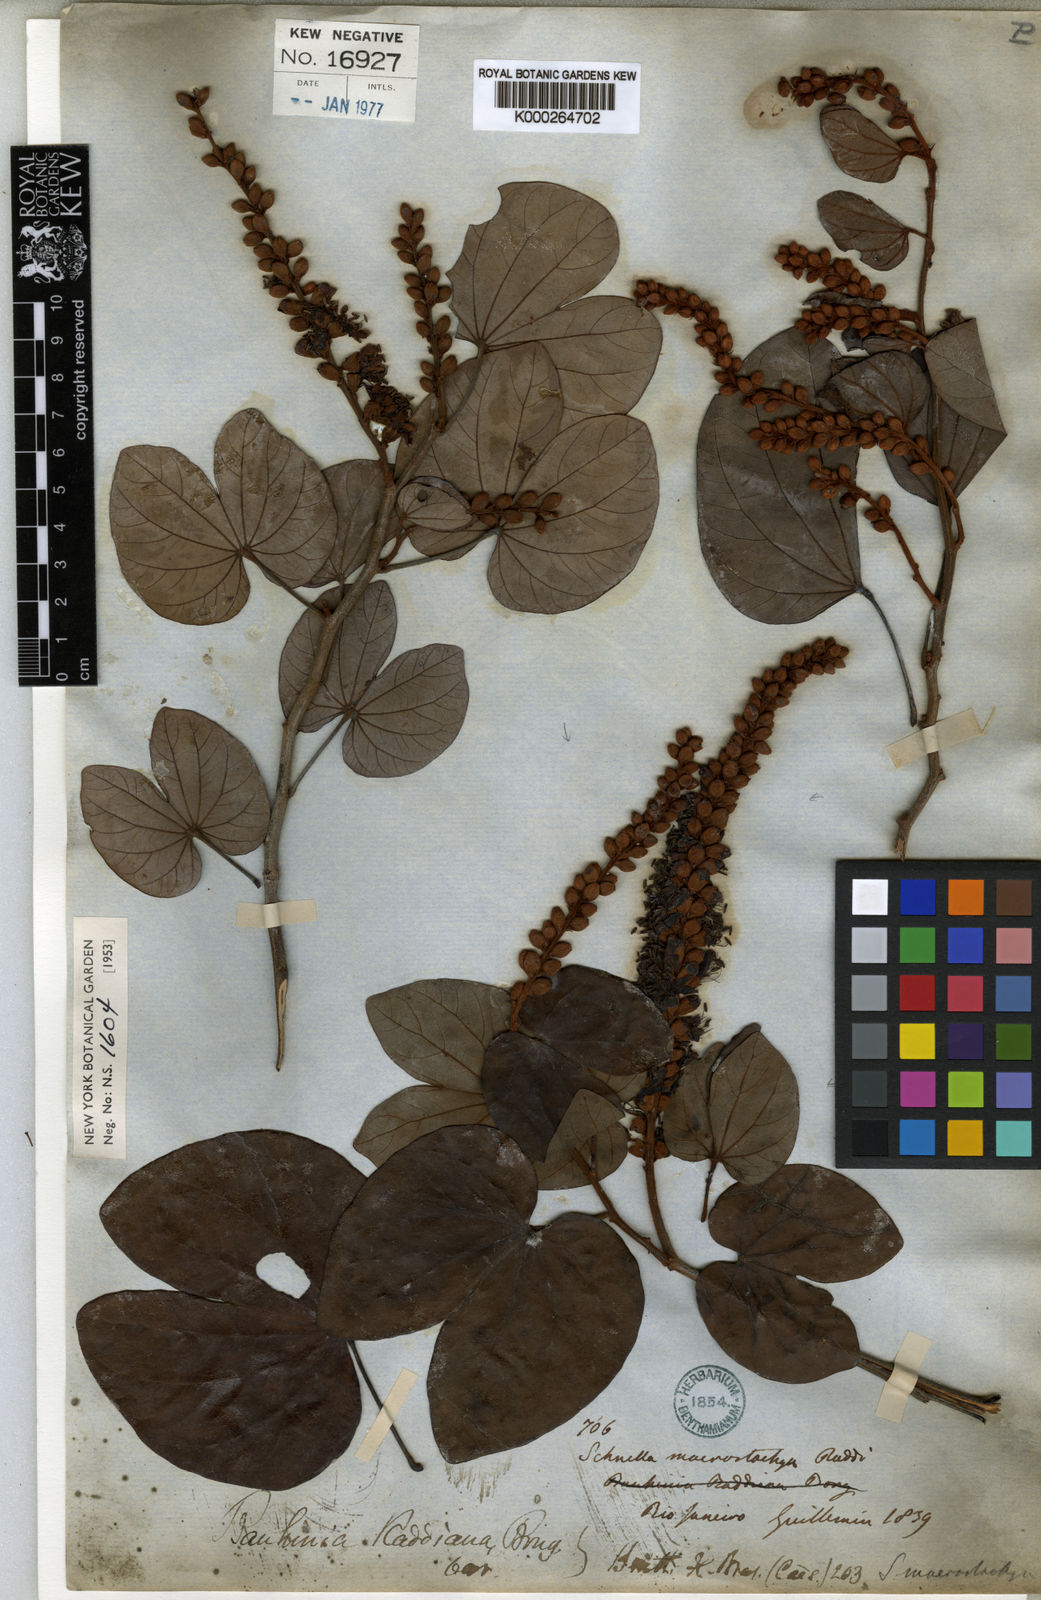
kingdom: Plantae
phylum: Tracheophyta
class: Magnoliopsida
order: Fabales
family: Fabaceae
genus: Schnella
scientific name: Schnella macrostachya
